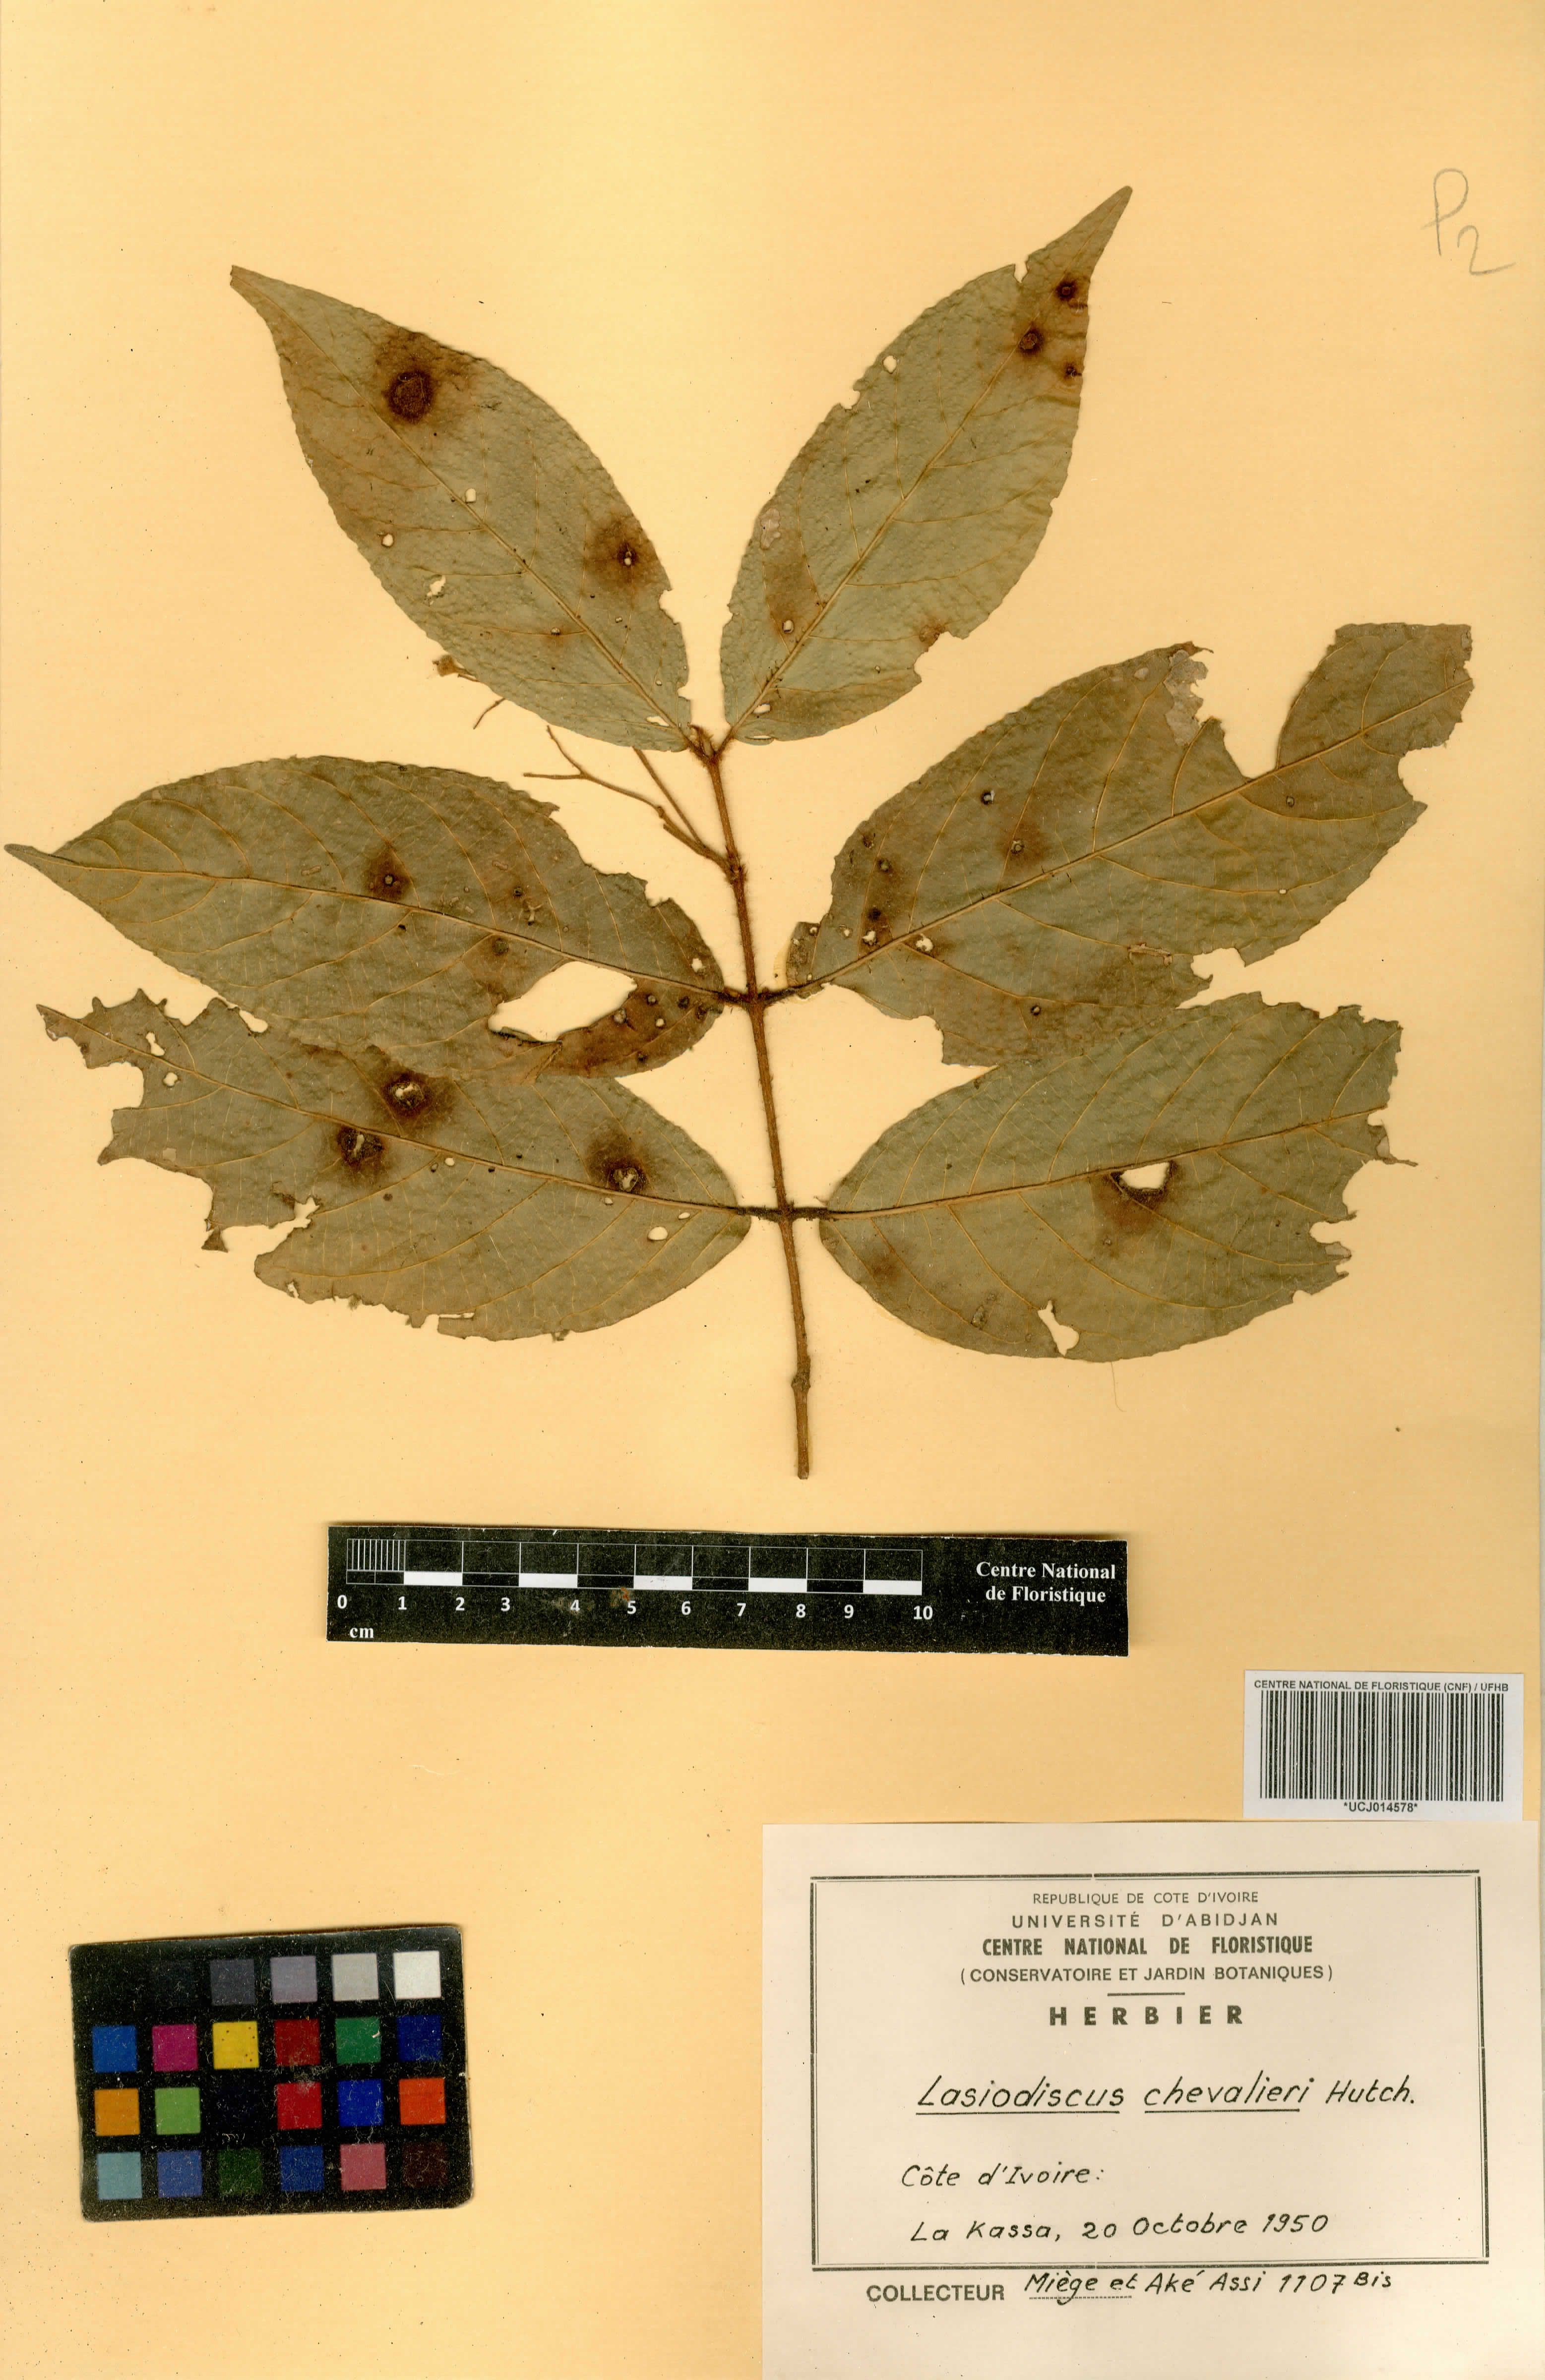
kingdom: Plantae
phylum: Tracheophyta
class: Magnoliopsida
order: Rosales
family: Rhamnaceae
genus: Lasiodiscus
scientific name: Lasiodiscus chevalieri
